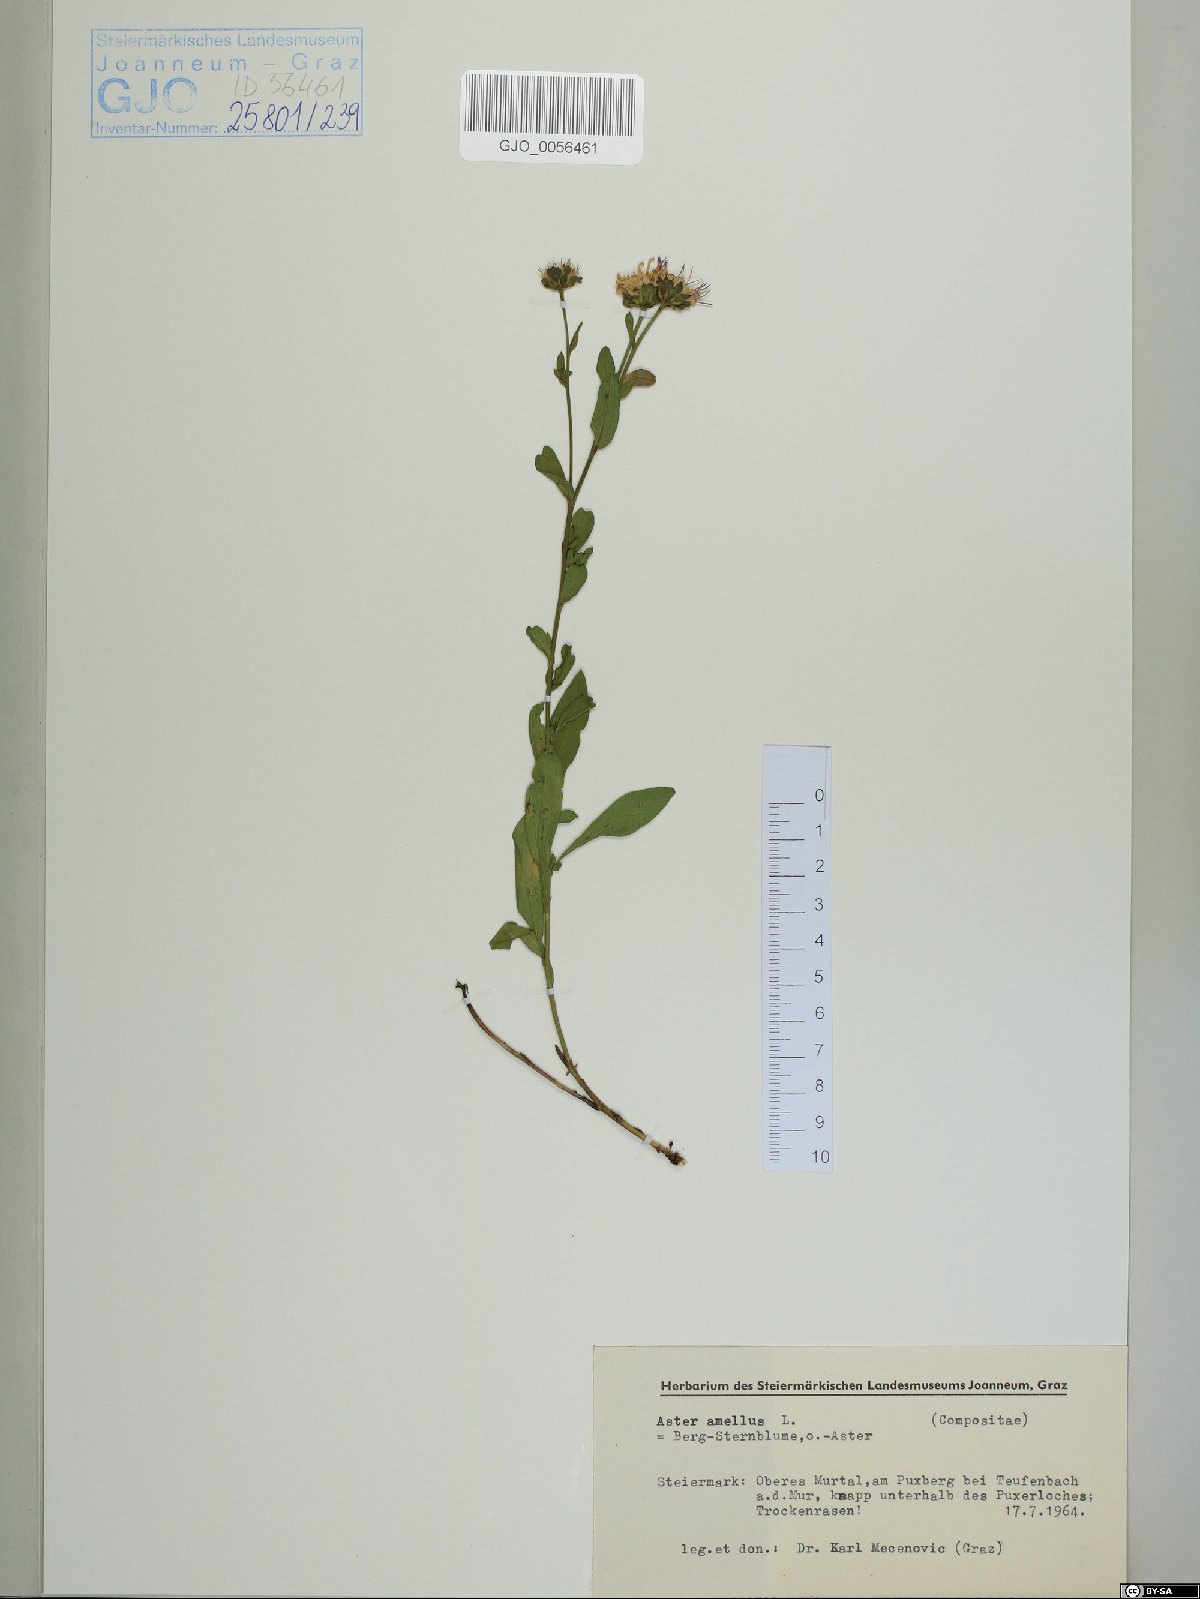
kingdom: Plantae
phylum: Tracheophyta
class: Magnoliopsida
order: Asterales
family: Asteraceae
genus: Aster
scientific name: Aster amellus
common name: European michaelmas daisy
